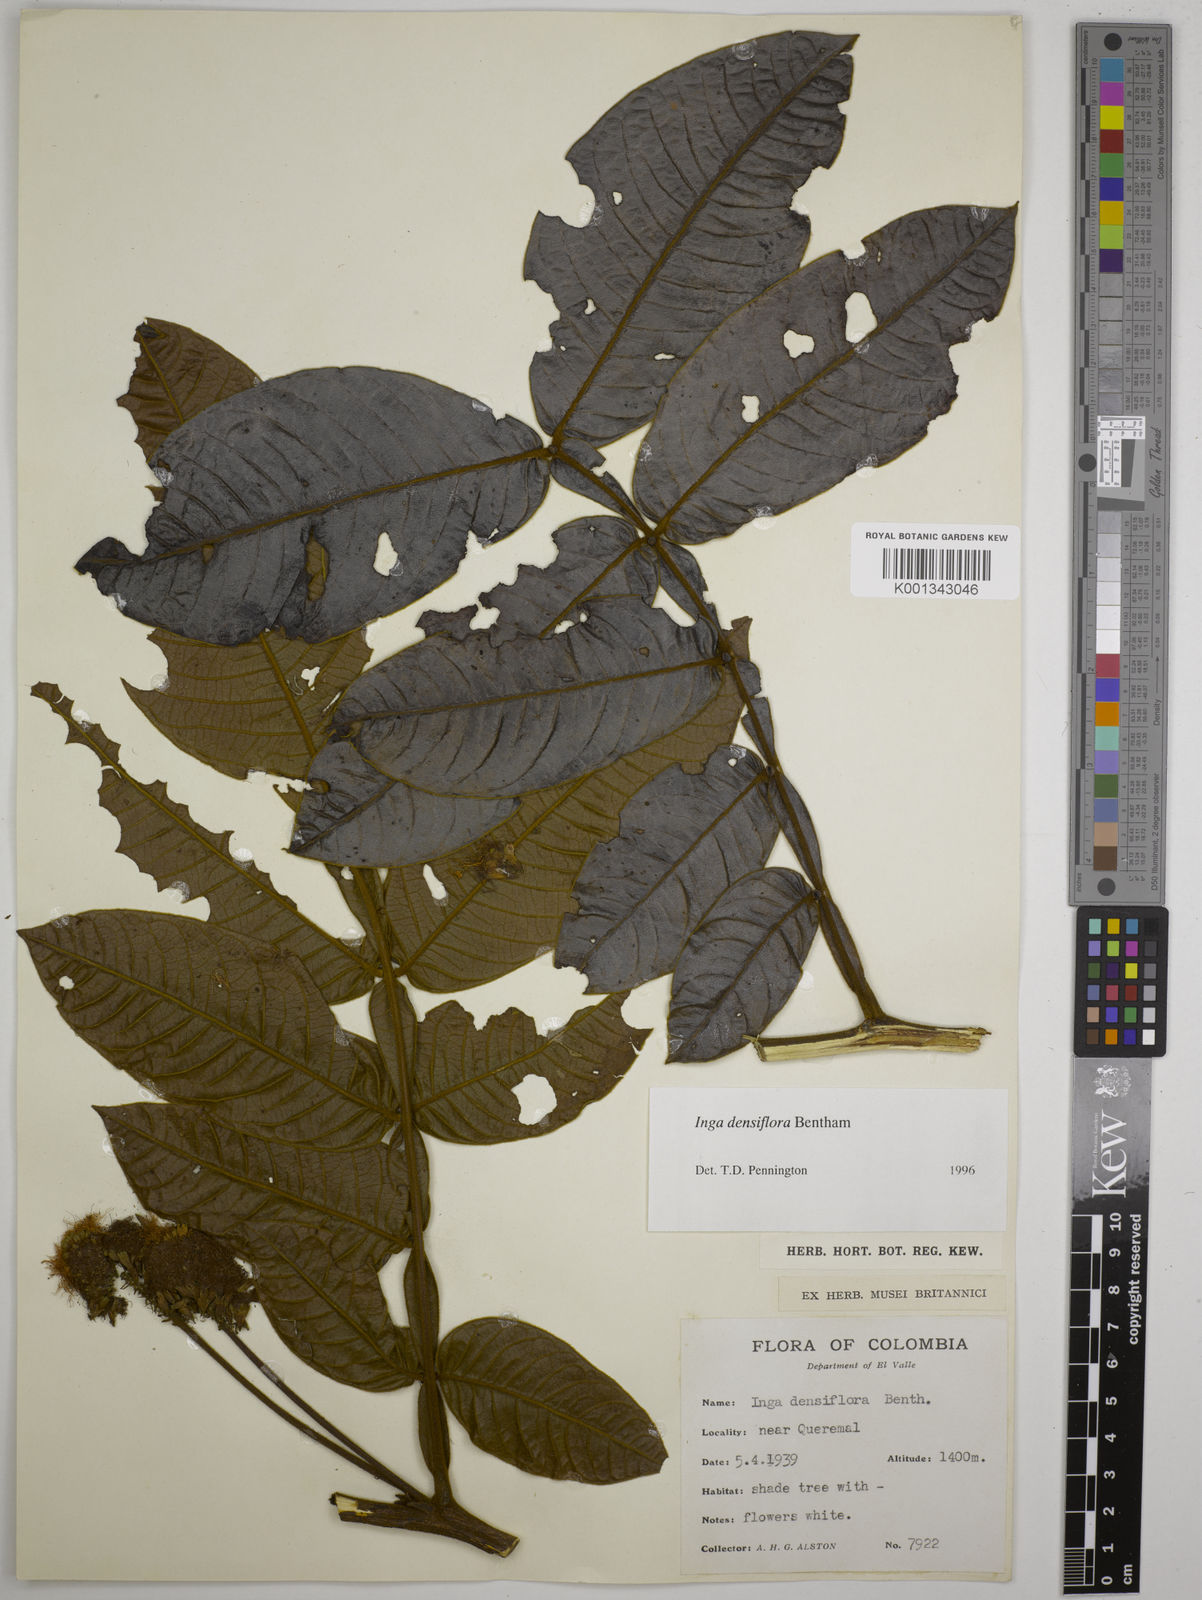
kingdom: Plantae
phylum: Tracheophyta
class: Magnoliopsida
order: Fabales
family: Fabaceae
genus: Inga
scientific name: Inga densiflora
